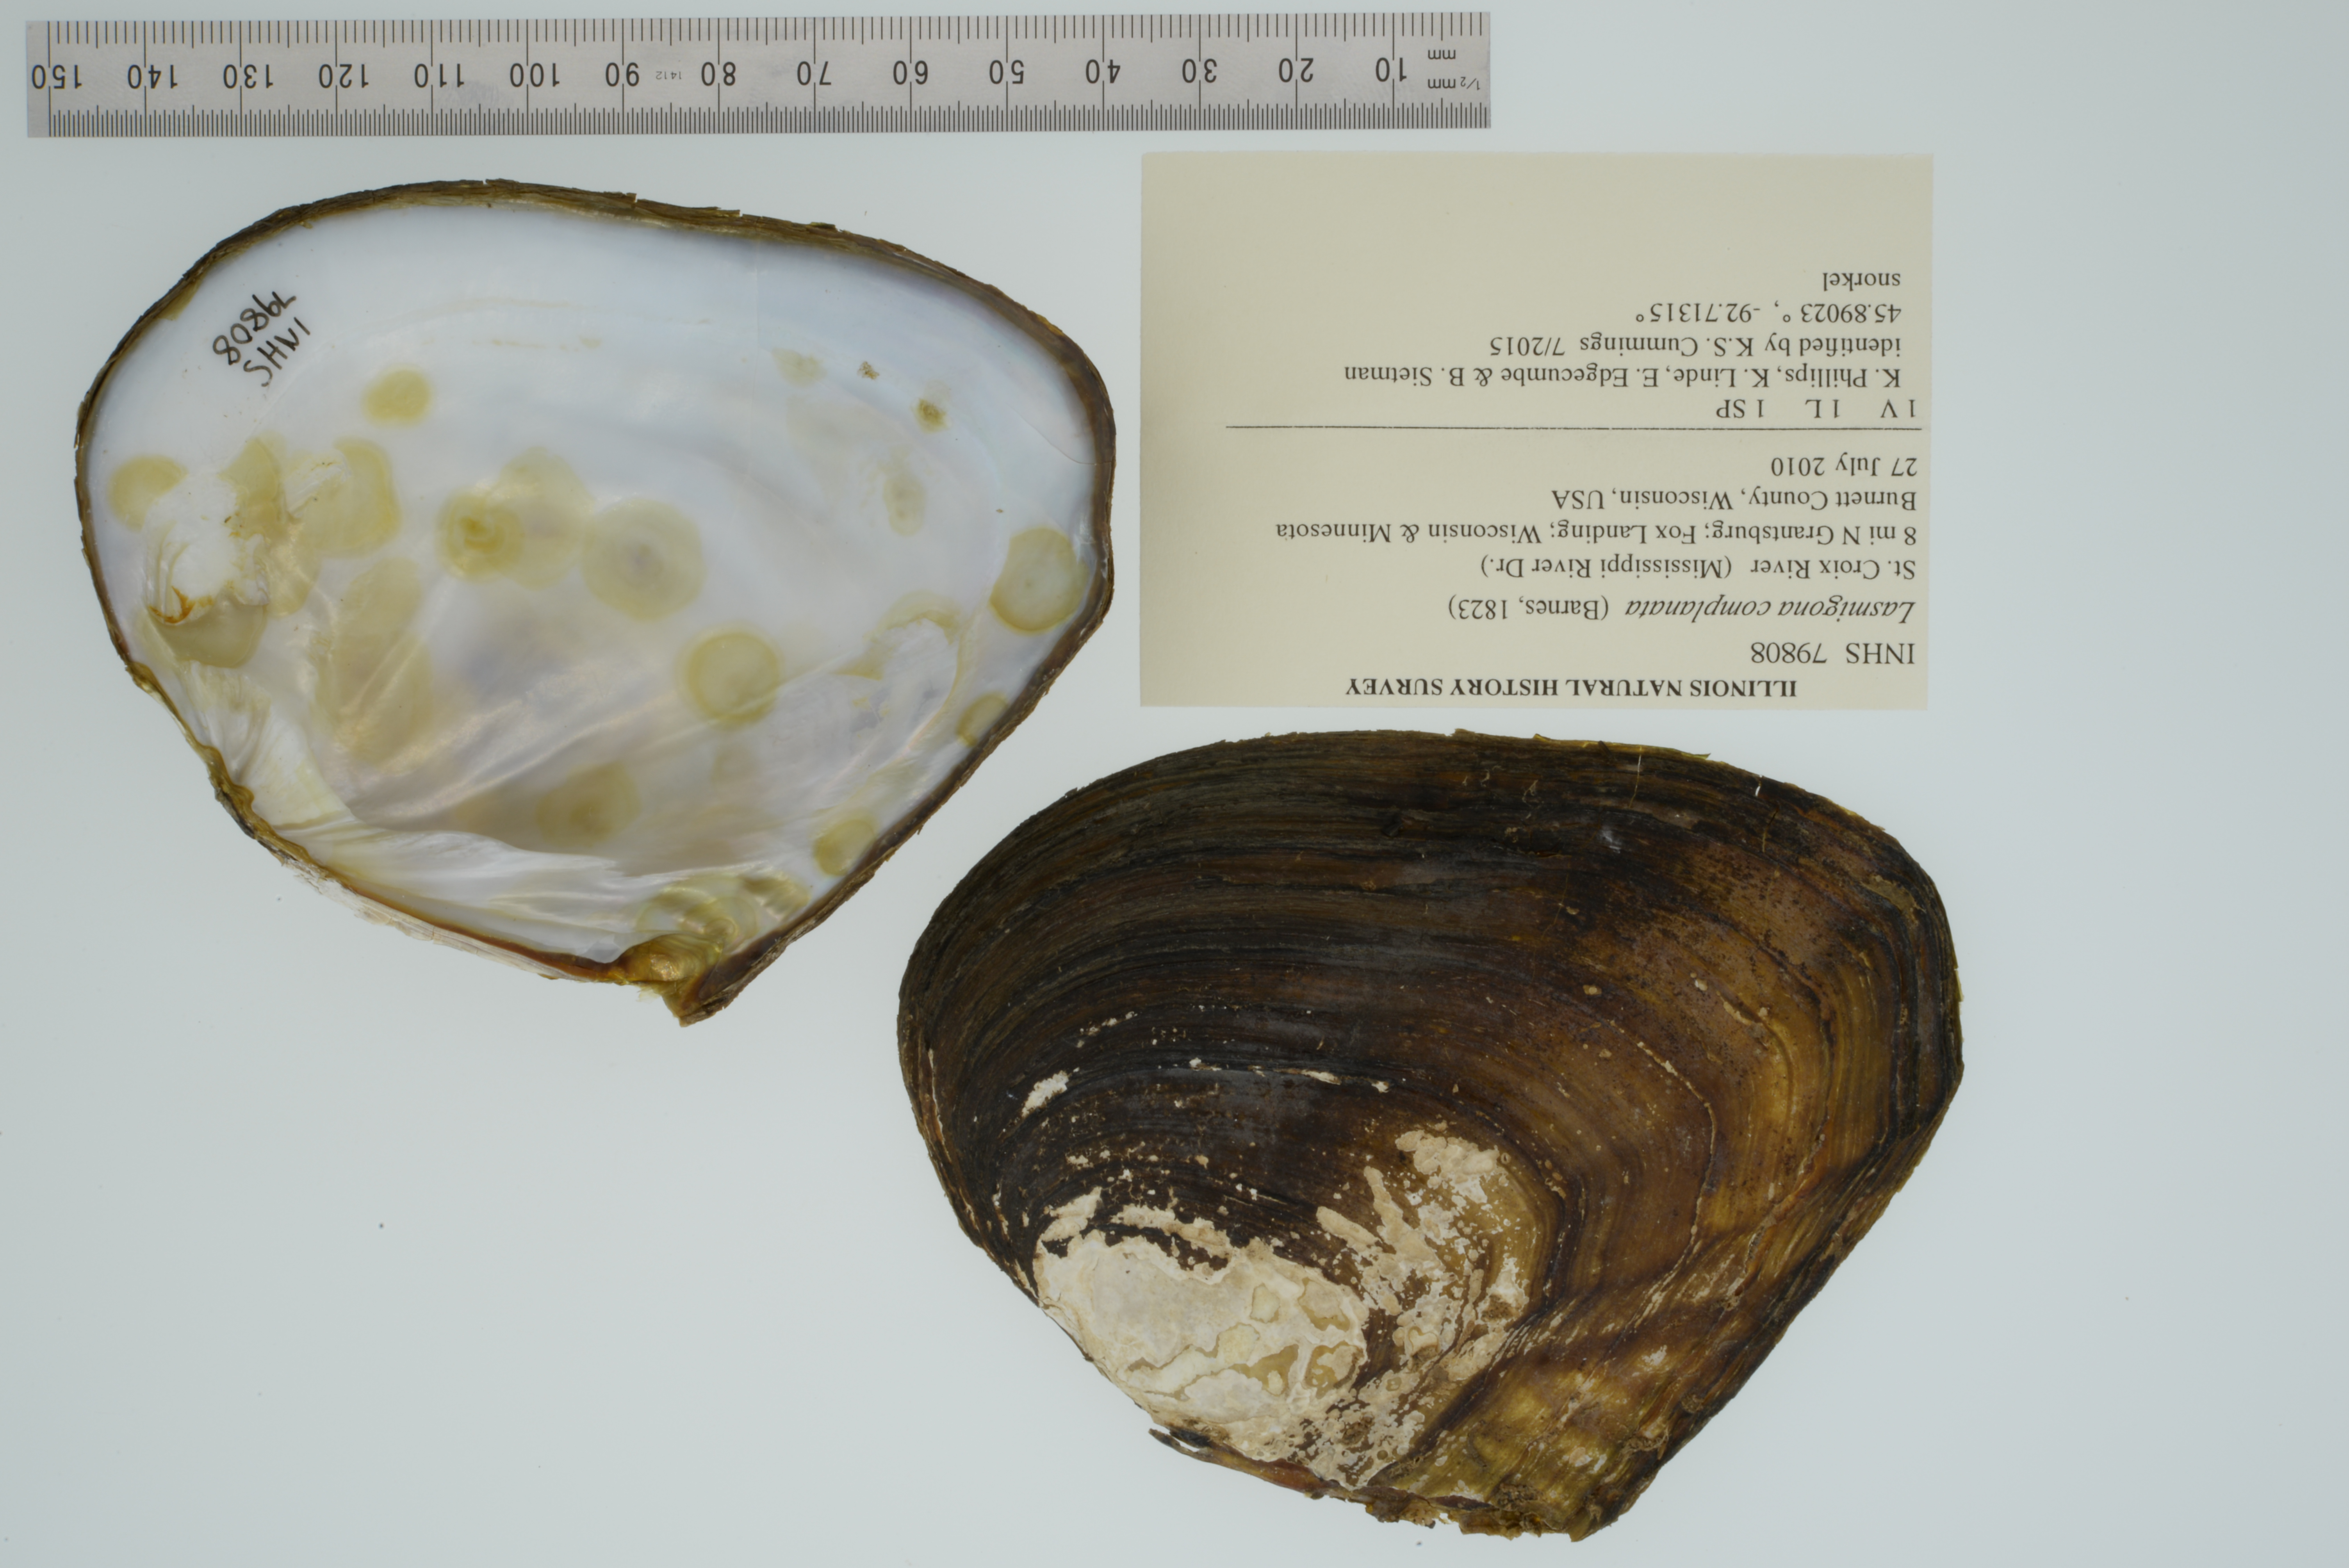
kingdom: Animalia
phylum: Mollusca
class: Bivalvia
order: Unionida
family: Unionidae
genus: Lasmigona
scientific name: Lasmigona complanata
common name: White heelsplitter
